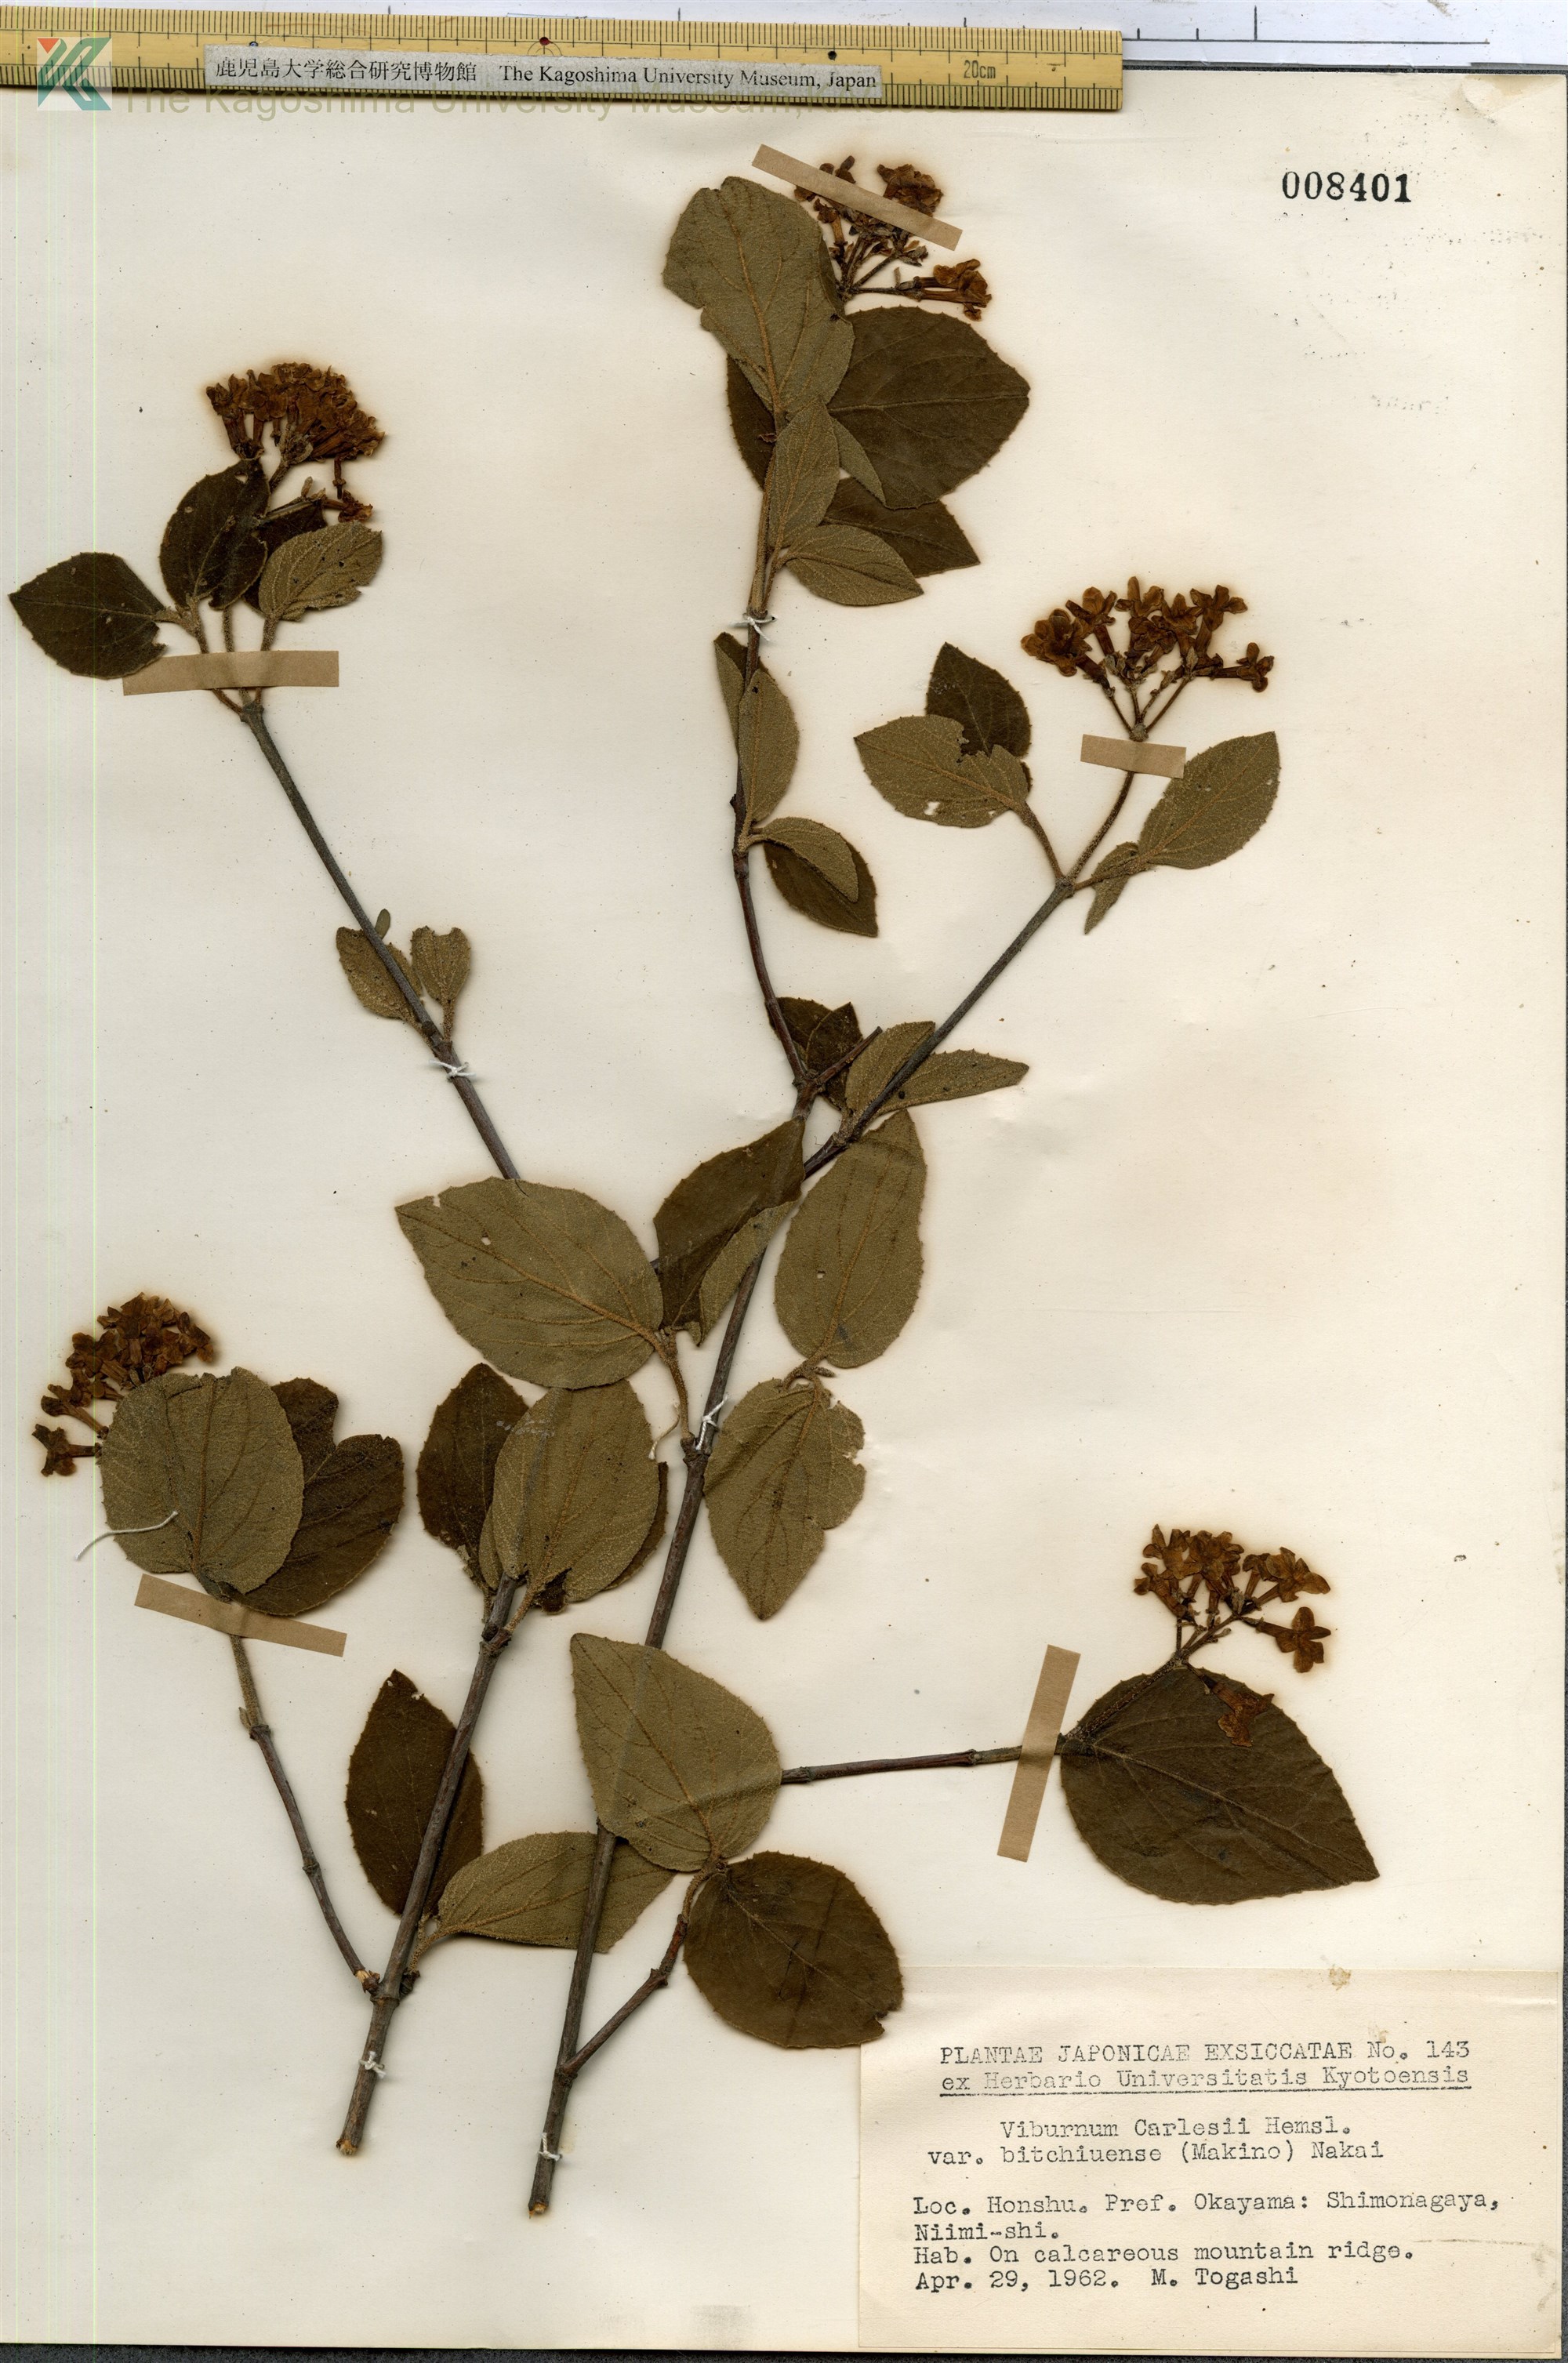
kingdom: Plantae
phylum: Tracheophyta
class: Magnoliopsida
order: Dipsacales
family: Viburnaceae
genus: Viburnum
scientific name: Viburnum carlesii
